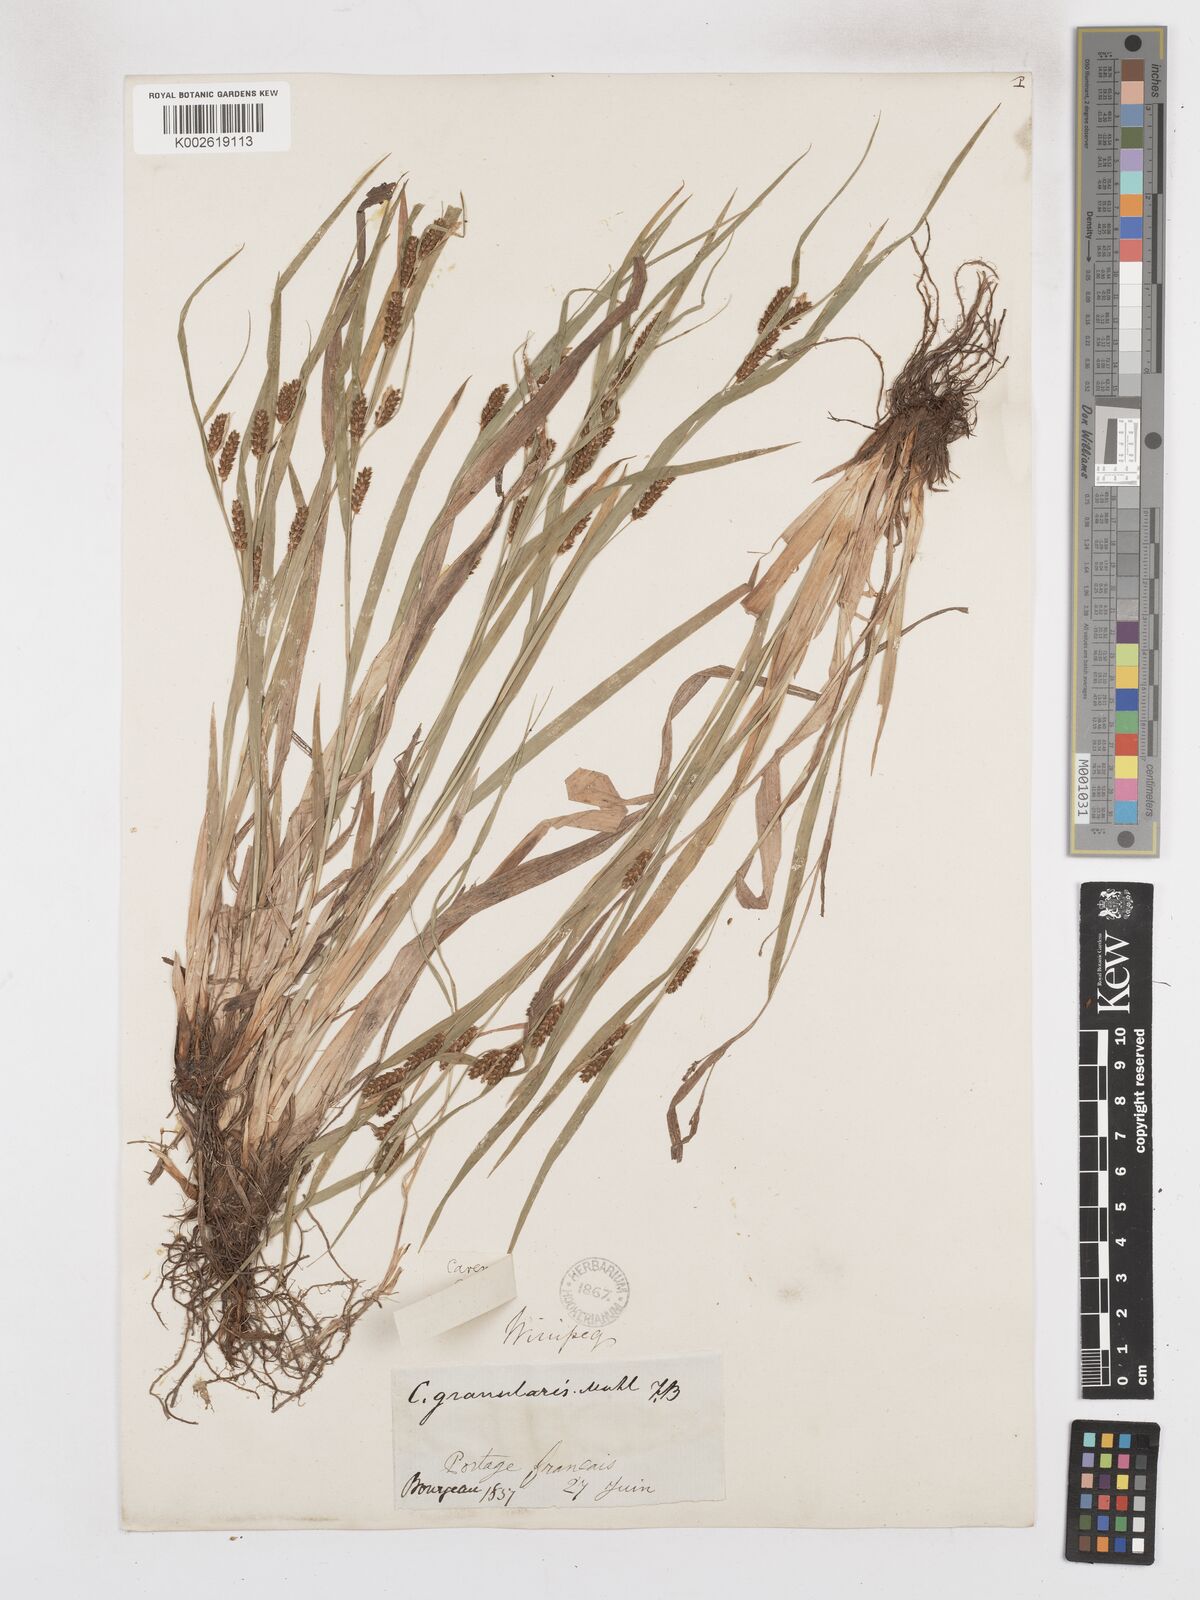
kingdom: Plantae
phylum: Tracheophyta
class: Liliopsida
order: Poales
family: Cyperaceae
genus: Carex
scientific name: Carex granularis
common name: Granular sedge
